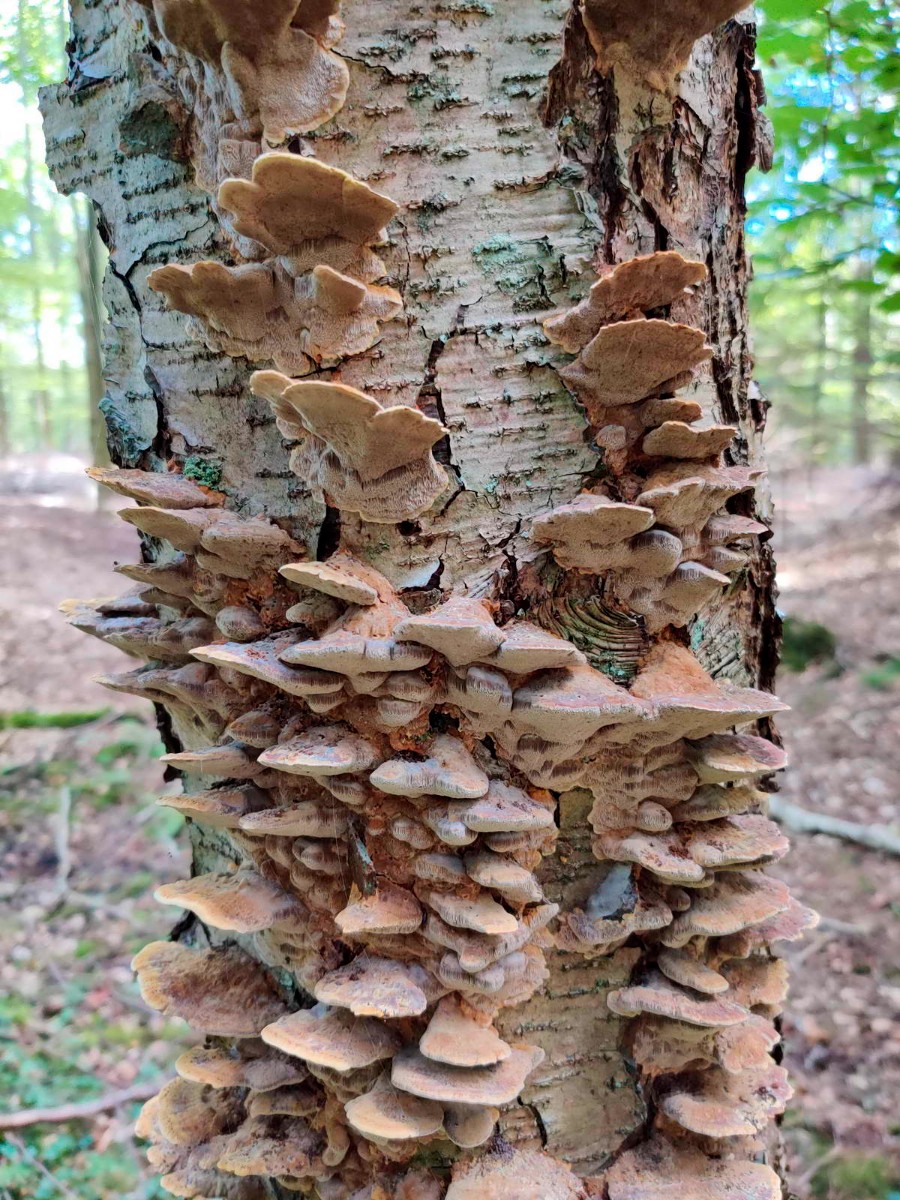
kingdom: Fungi
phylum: Basidiomycota
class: Agaricomycetes
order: Hymenochaetales
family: Hymenochaetaceae
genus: Xanthoporia
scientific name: Xanthoporia radiata
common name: elle-spejlporesvamp
